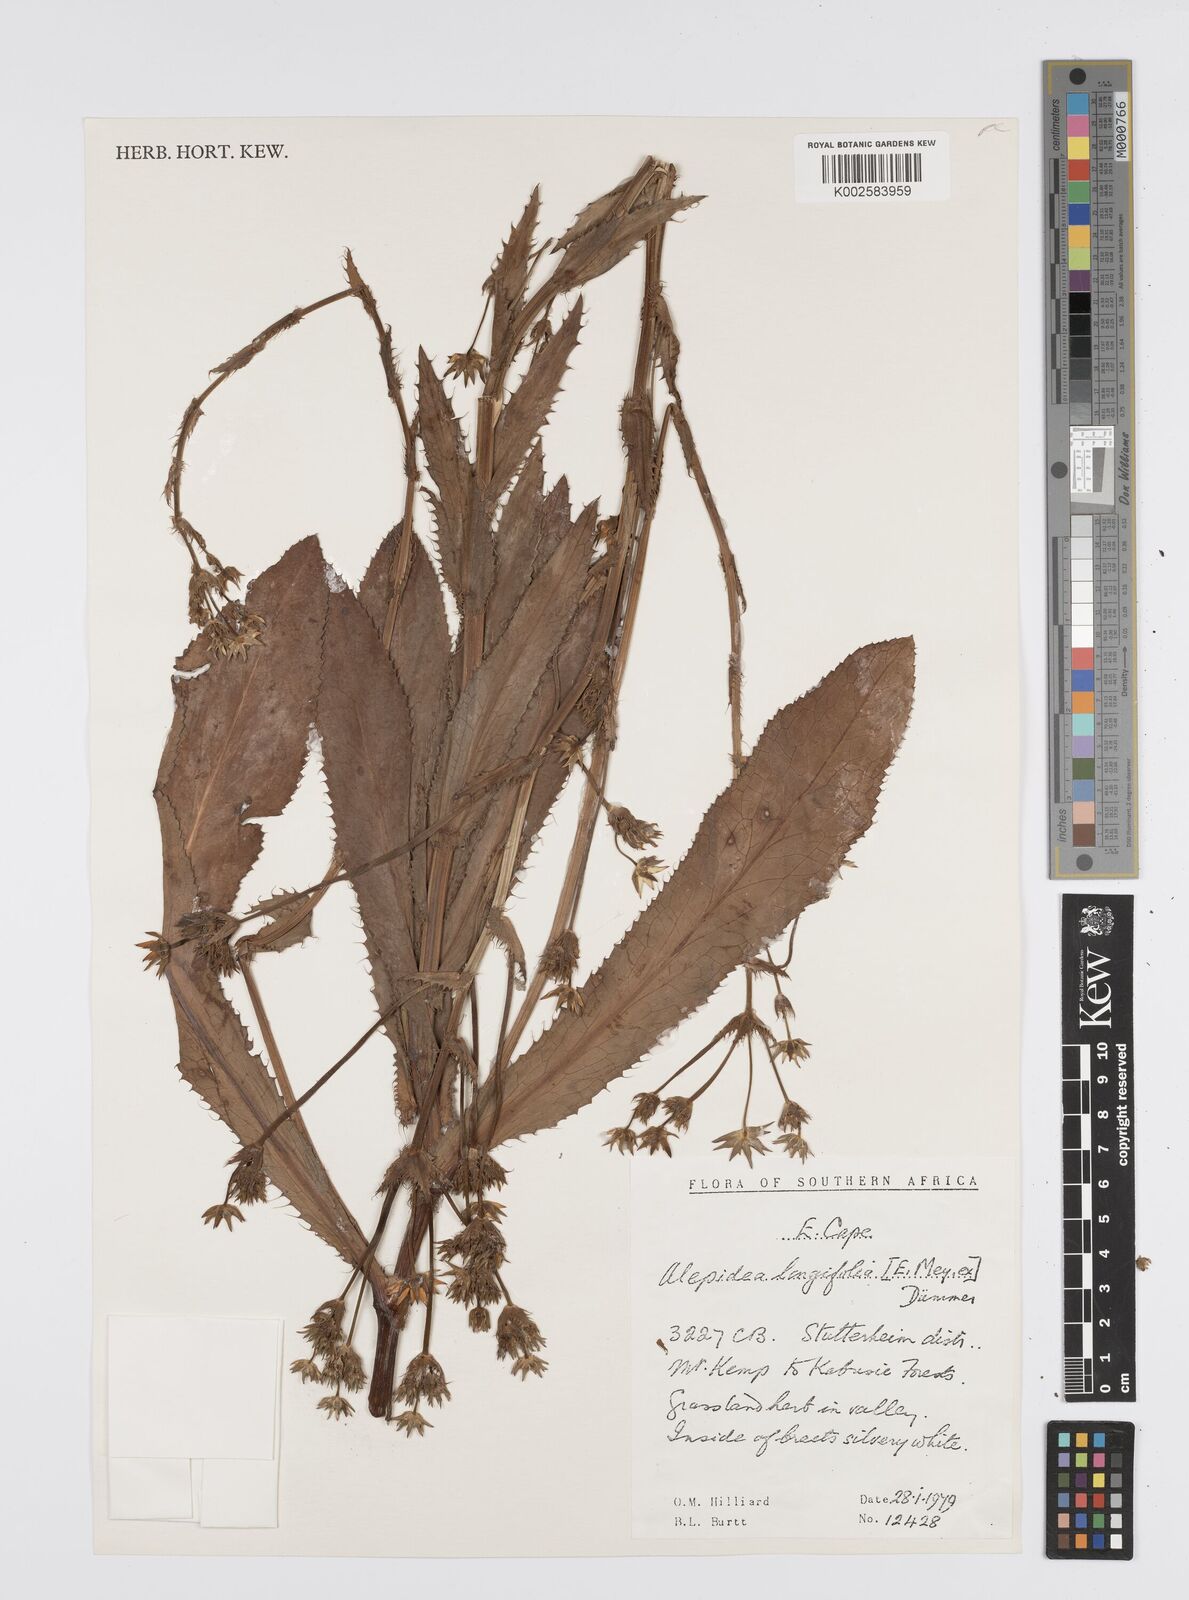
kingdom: Plantae
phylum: Tracheophyta
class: Magnoliopsida
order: Apiales
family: Apiaceae
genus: Alepidea
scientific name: Alepidea
